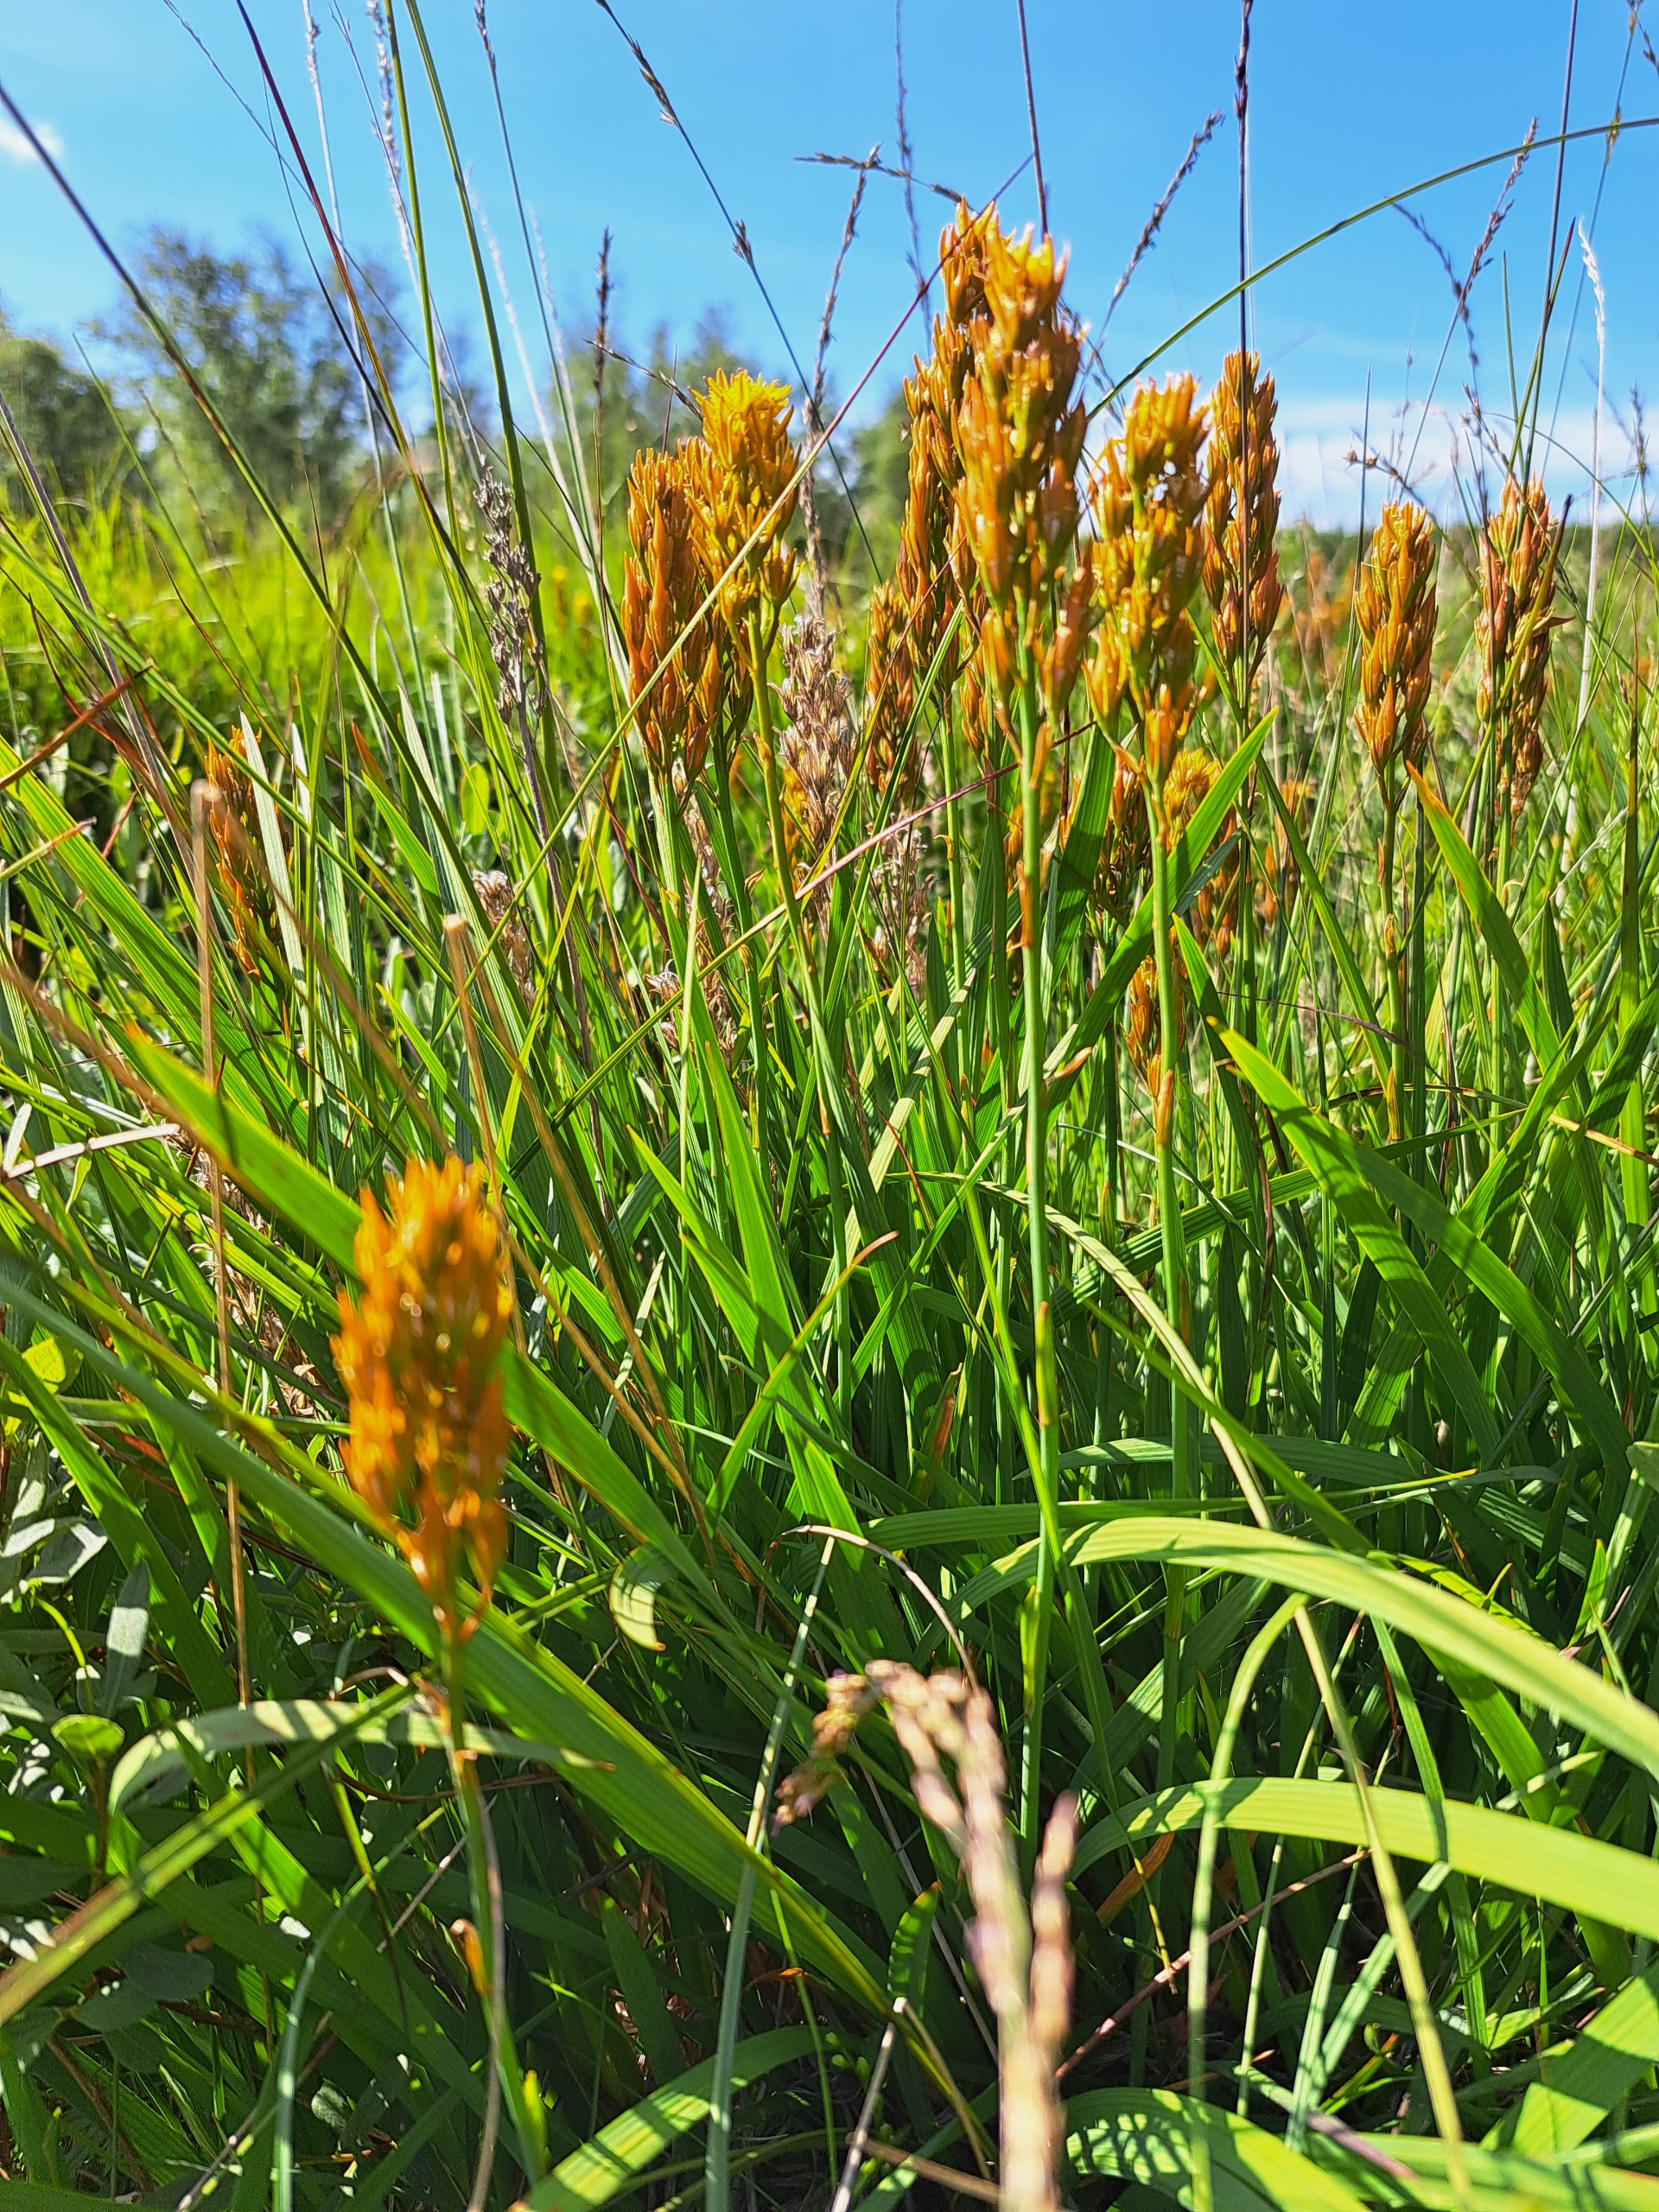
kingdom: Plantae
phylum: Tracheophyta
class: Liliopsida
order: Dioscoreales
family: Nartheciaceae
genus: Narthecium
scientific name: Narthecium ossifragum
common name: Benbræk
